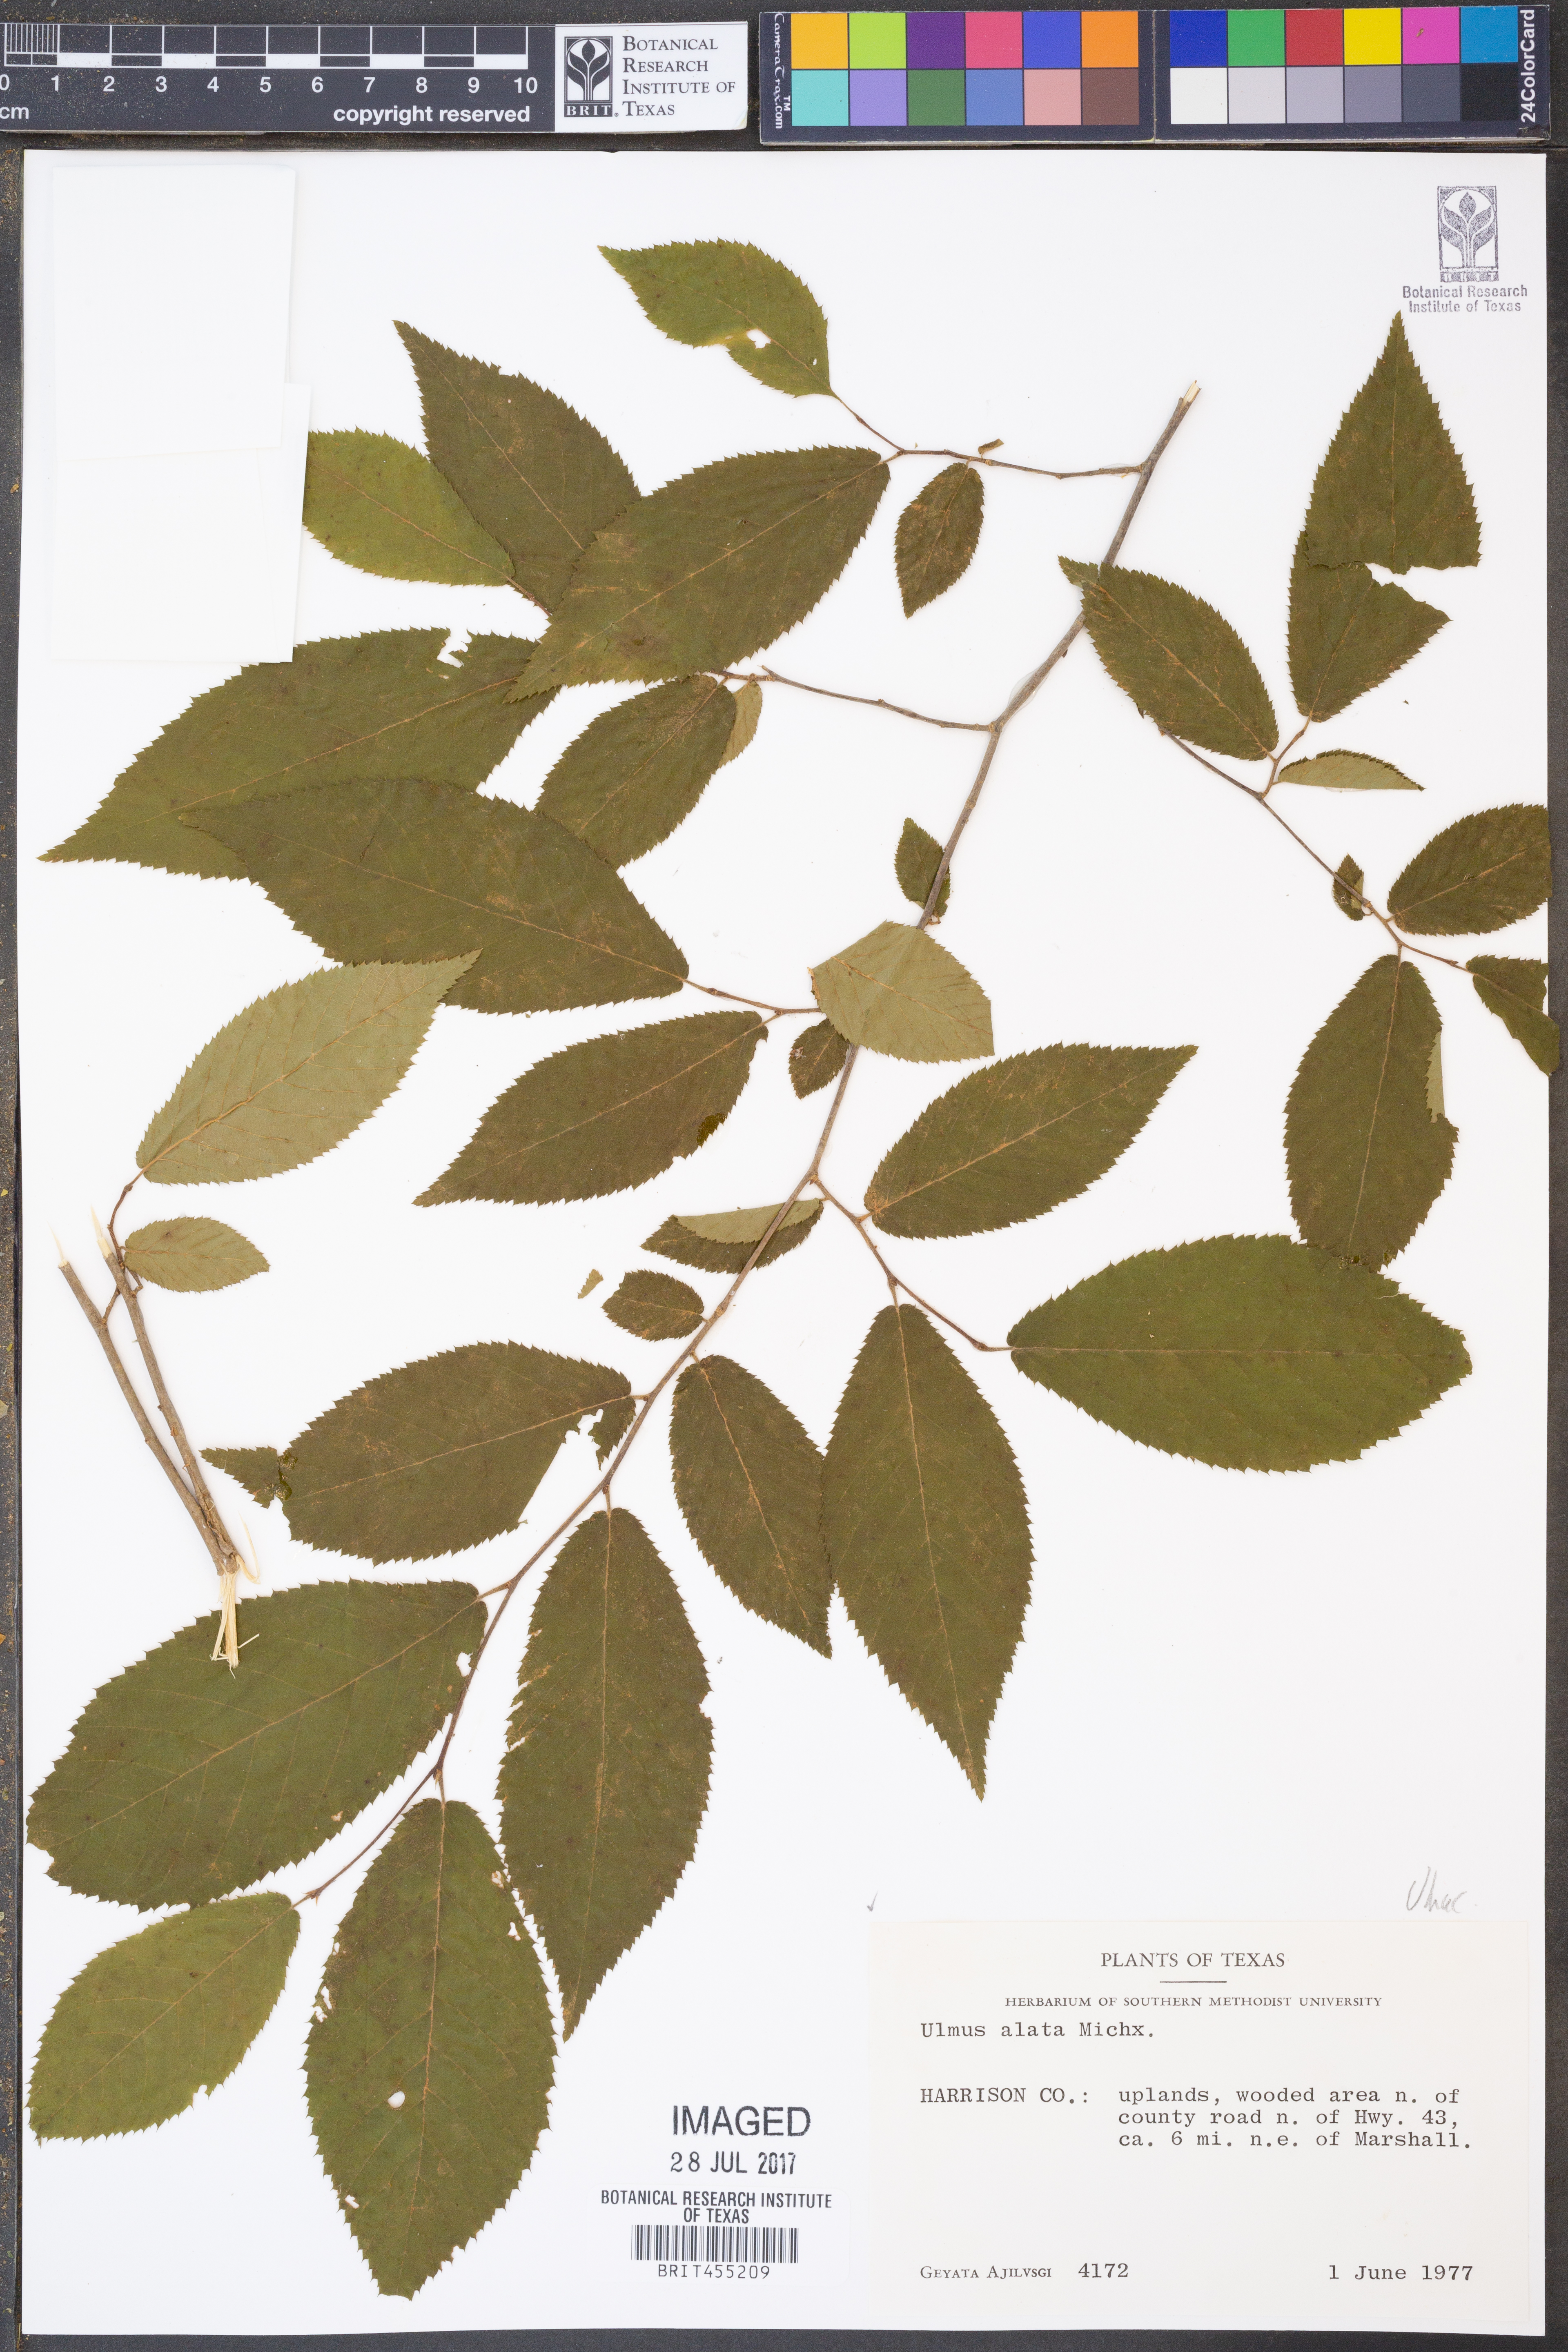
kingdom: Plantae
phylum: Tracheophyta
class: Magnoliopsida
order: Rosales
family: Ulmaceae
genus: Ulmus
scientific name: Ulmus alata
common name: Winged elm
